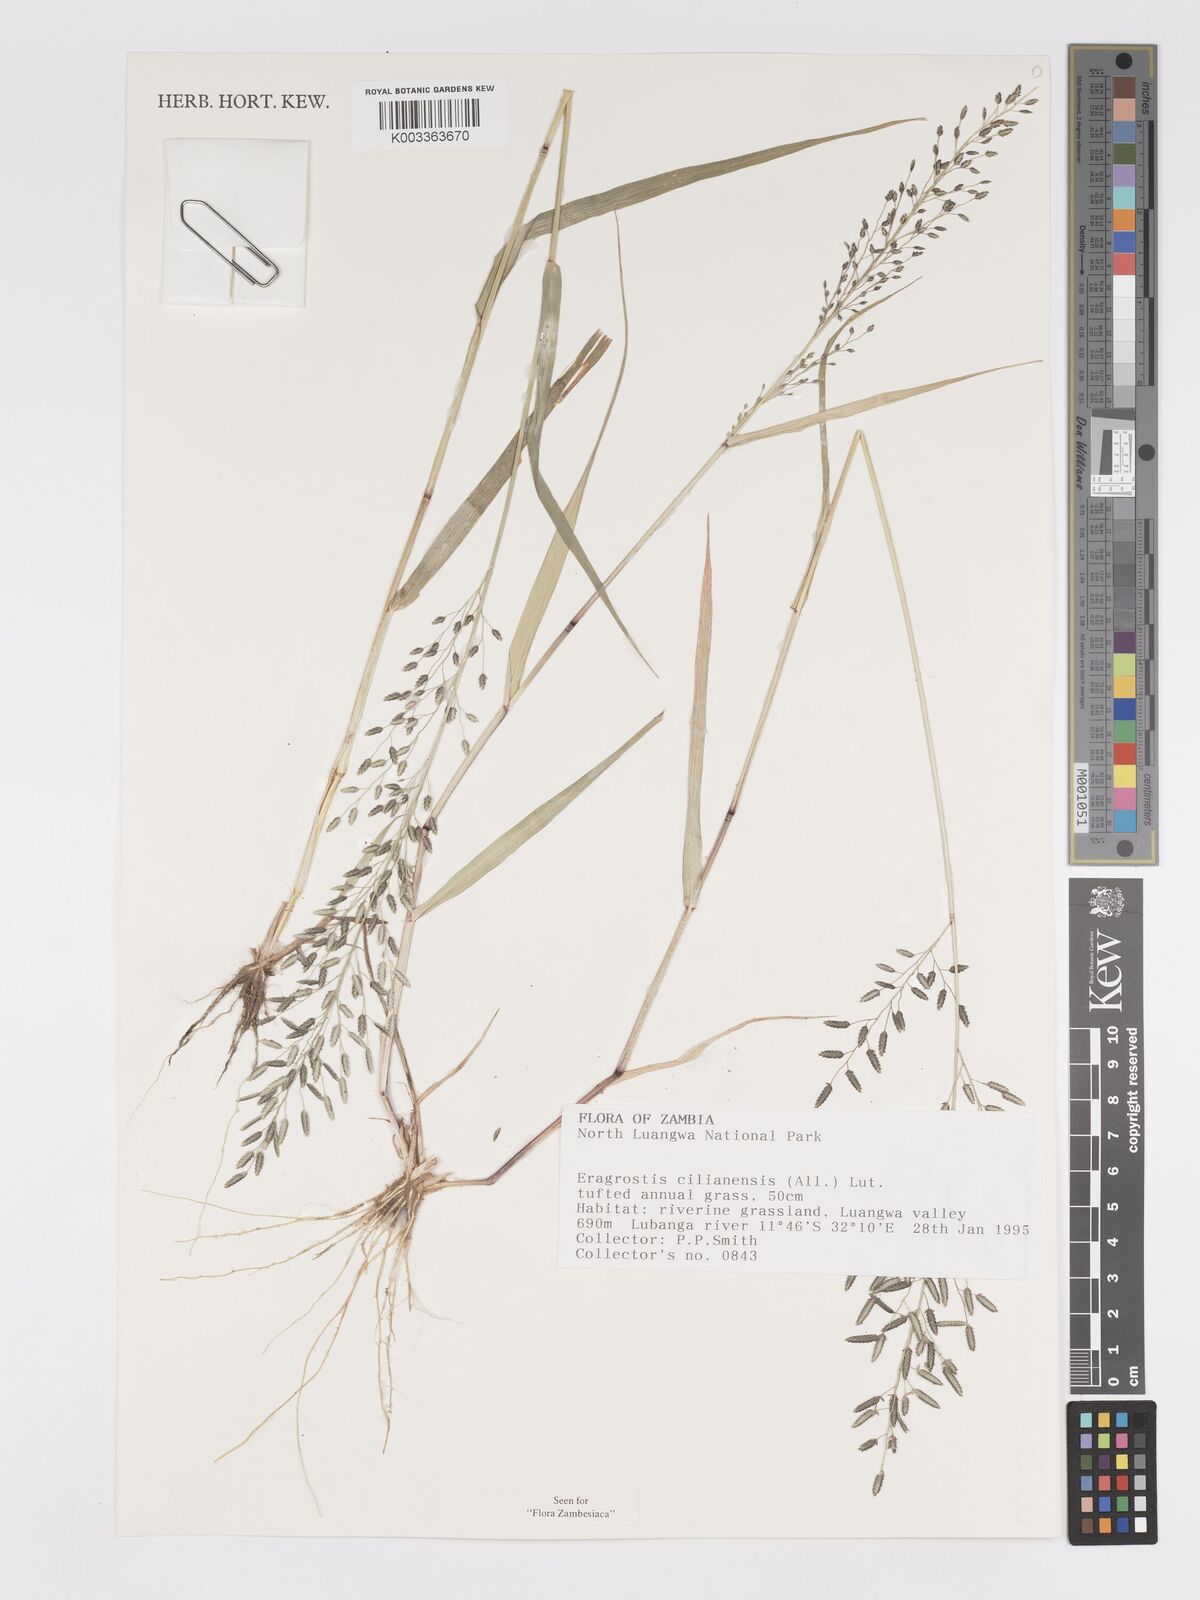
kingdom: Plantae
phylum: Tracheophyta
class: Liliopsida
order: Poales
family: Poaceae
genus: Eragrostis
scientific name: Eragrostis cilianensis
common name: Stinkgrass
